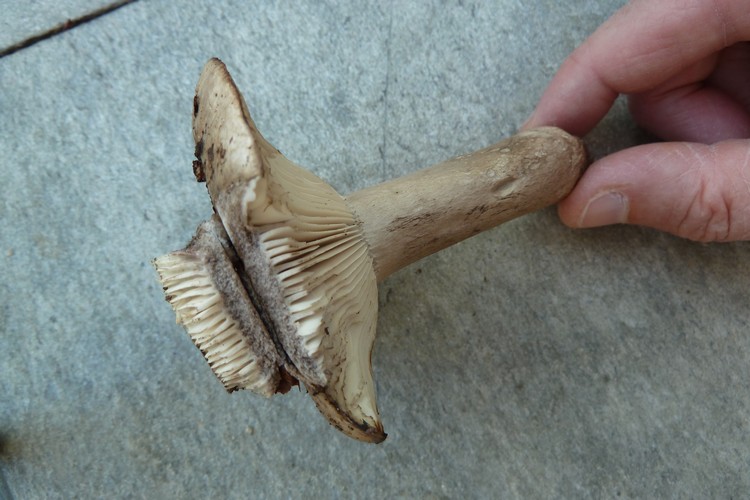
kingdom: Fungi
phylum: Basidiomycota
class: Agaricomycetes
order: Russulales
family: Russulaceae
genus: Russula
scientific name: Russula anthracina
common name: kul-skørhat
